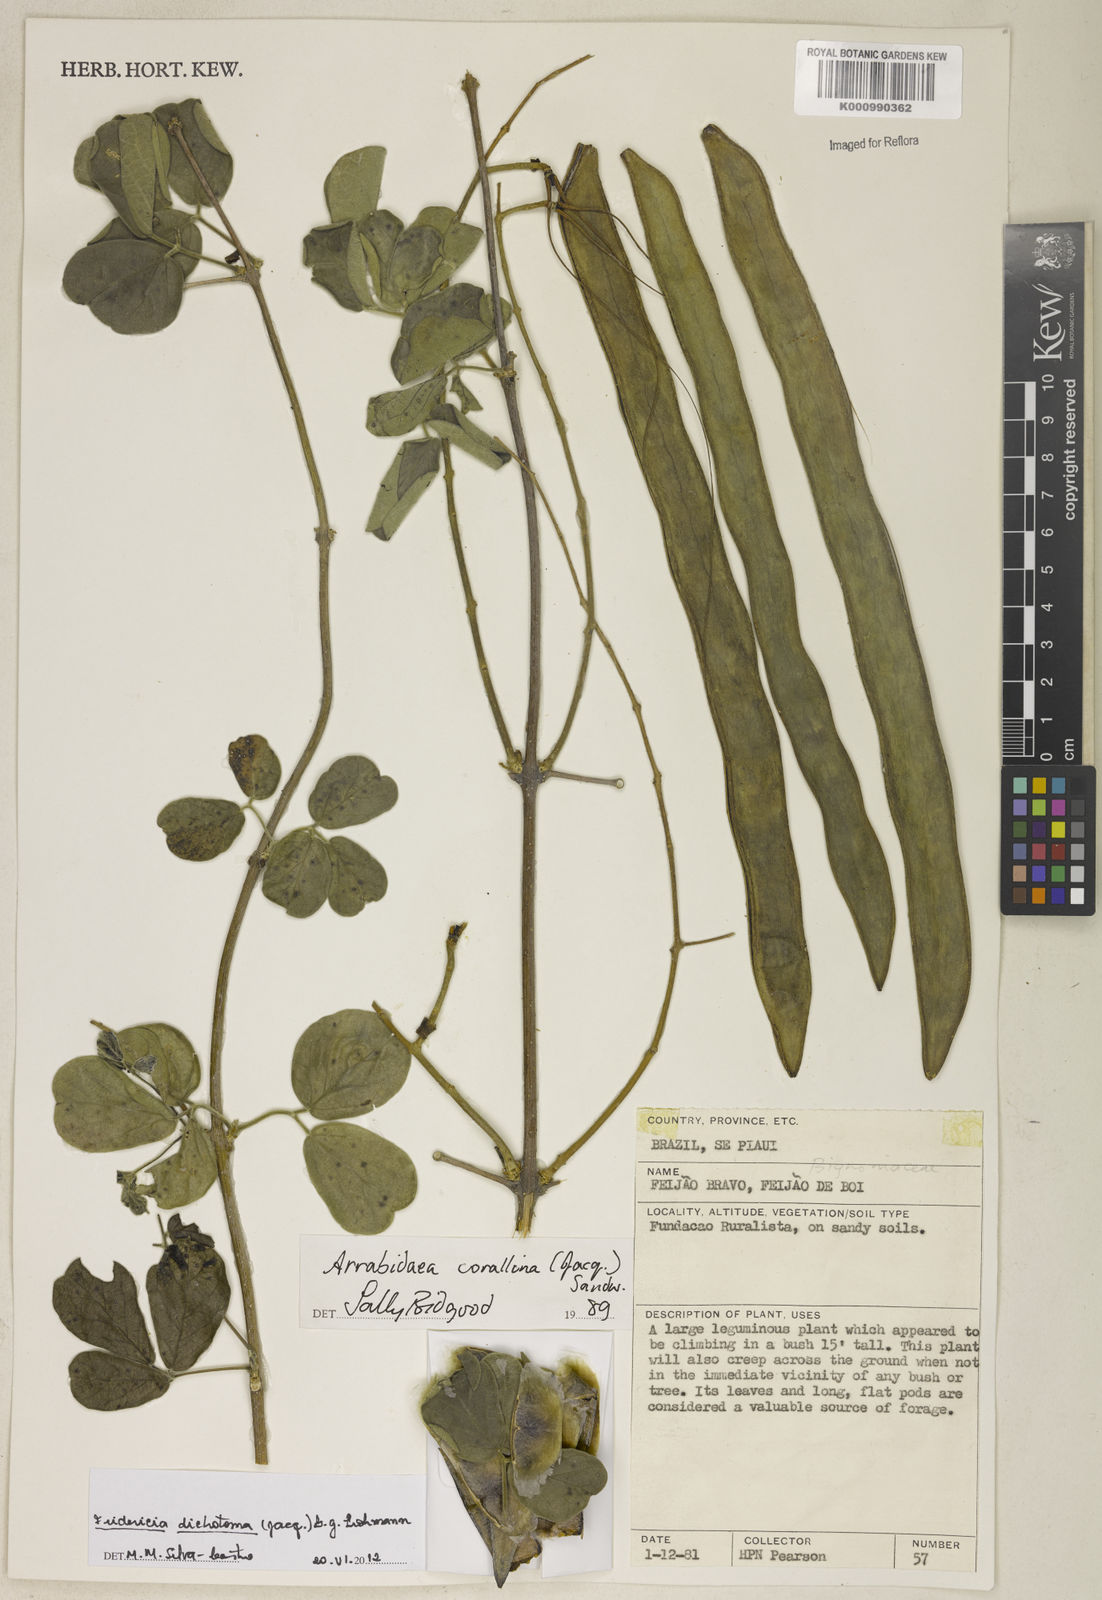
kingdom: Plantae
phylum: Tracheophyta
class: Magnoliopsida
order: Lamiales
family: Bignoniaceae
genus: Tanaecium
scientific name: Tanaecium dichotomum
